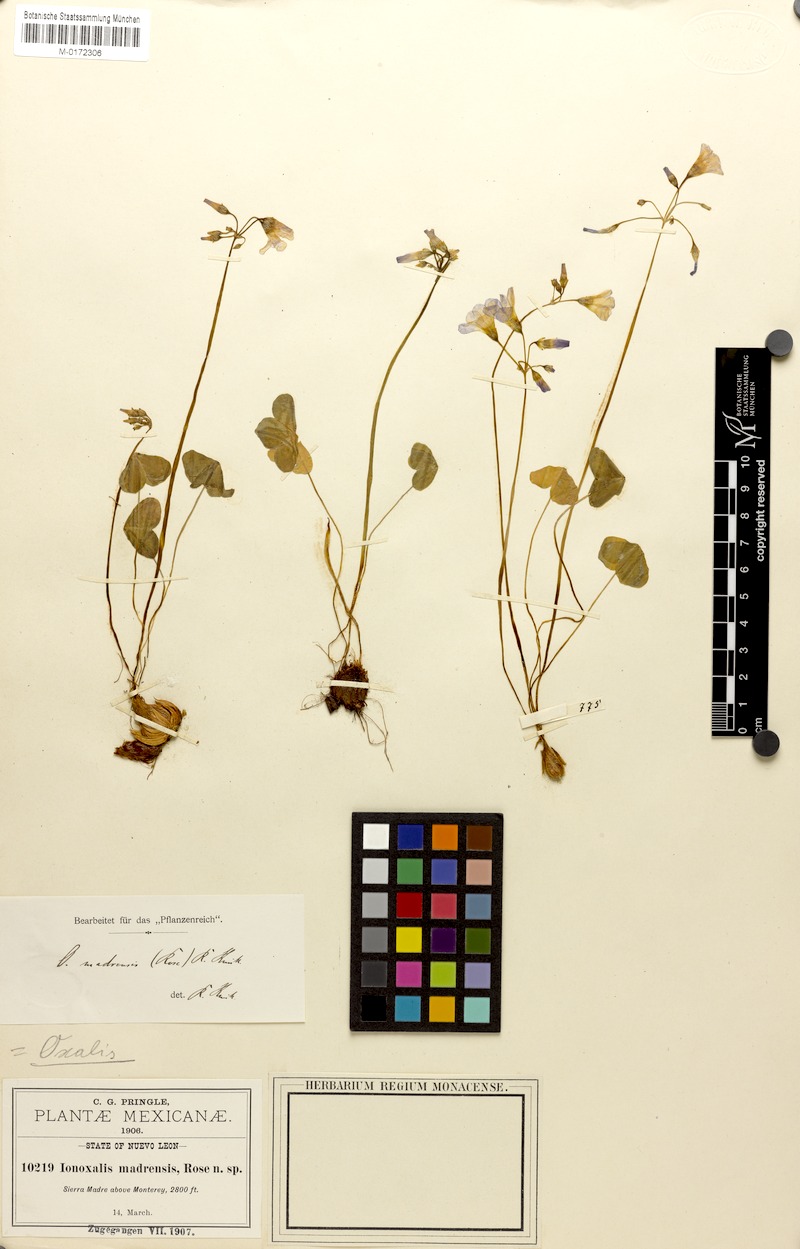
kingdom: Plantae
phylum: Tracheophyta
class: Magnoliopsida
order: Oxalidales
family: Oxalidaceae
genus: Oxalis
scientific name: Oxalis drummondii
